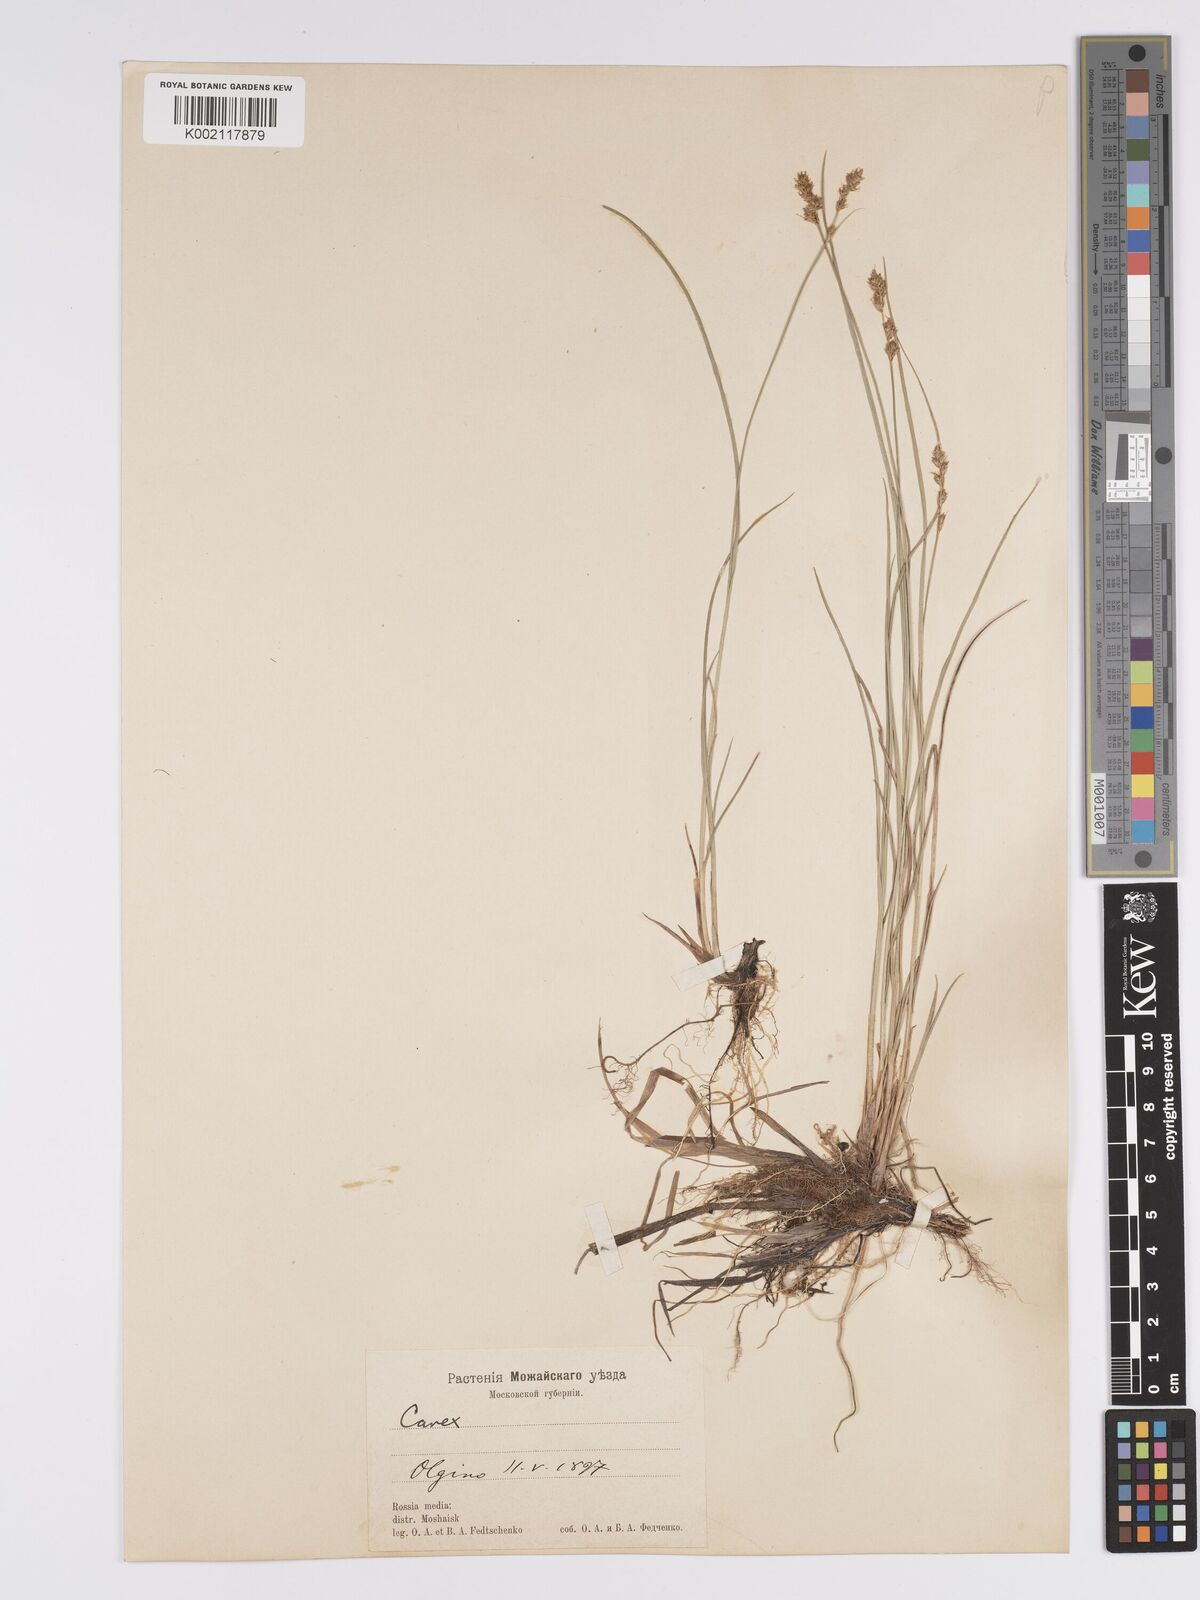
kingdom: Plantae
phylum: Tracheophyta
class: Liliopsida
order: Poales
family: Cyperaceae
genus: Carex
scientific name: Carex diandra
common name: Lesser tussock-sedge
